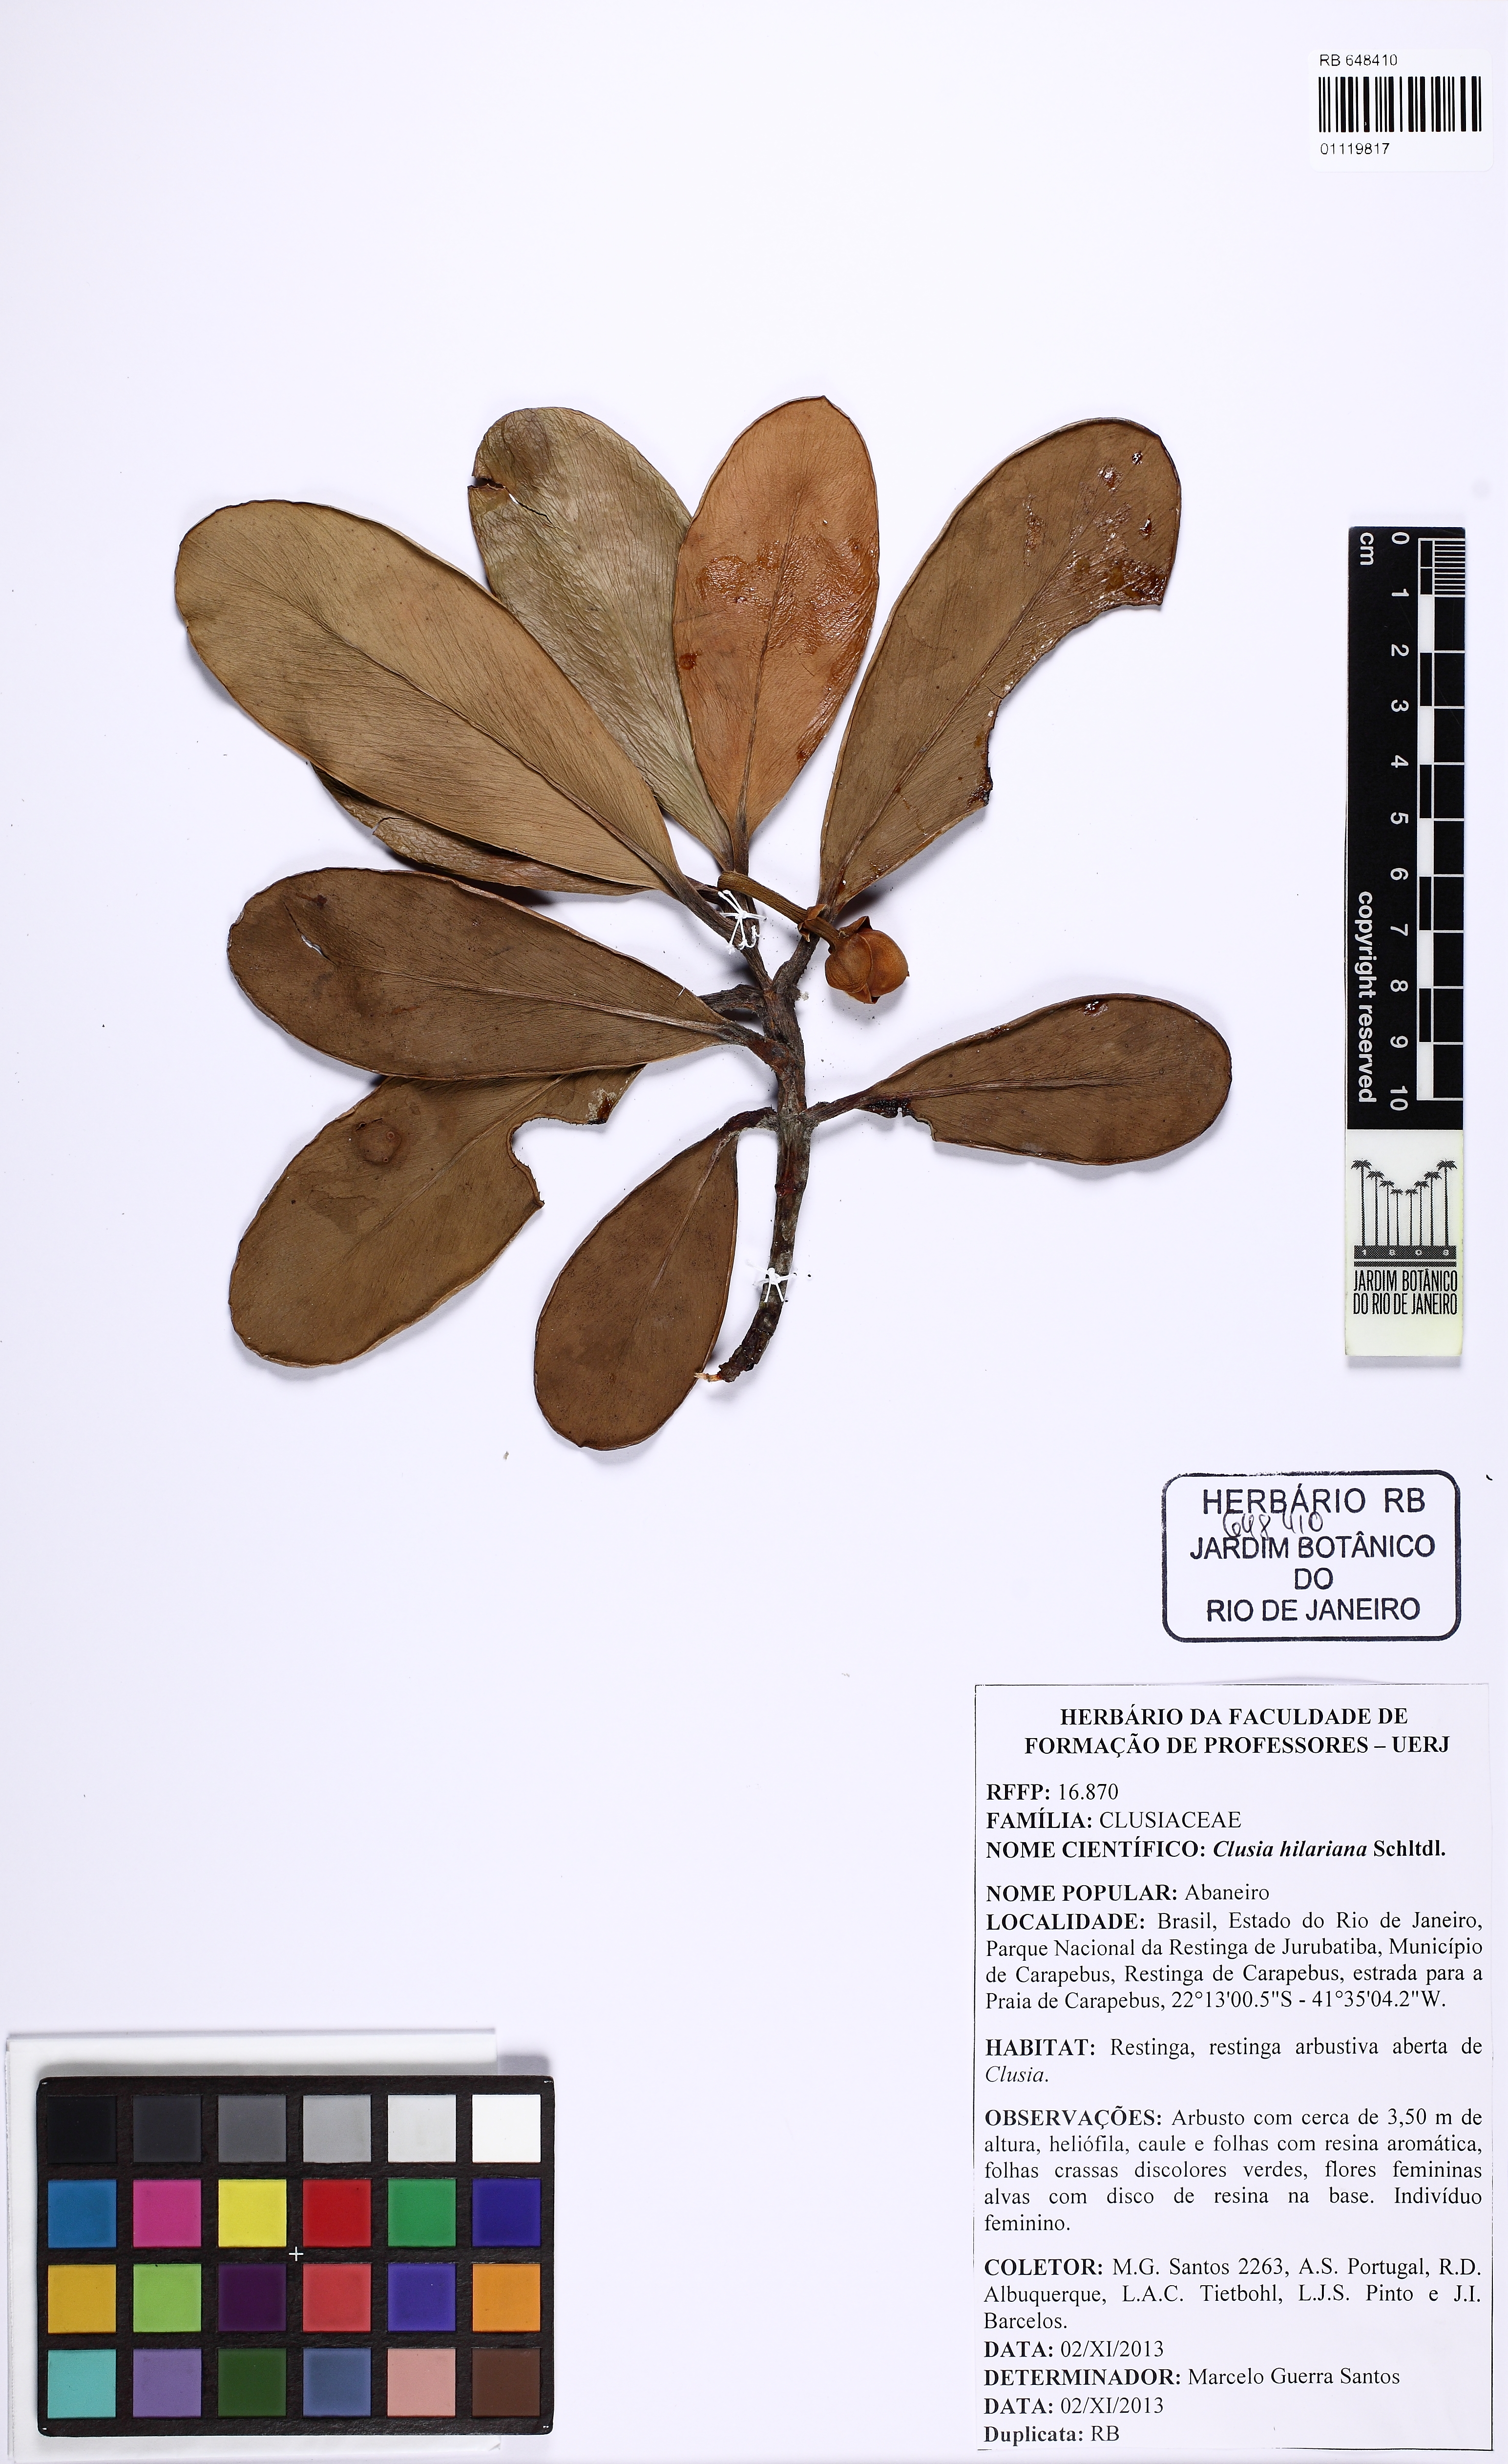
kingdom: Plantae
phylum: Tracheophyta
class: Magnoliopsida
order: Malpighiales
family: Clusiaceae
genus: Clusia
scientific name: Clusia hilariana
